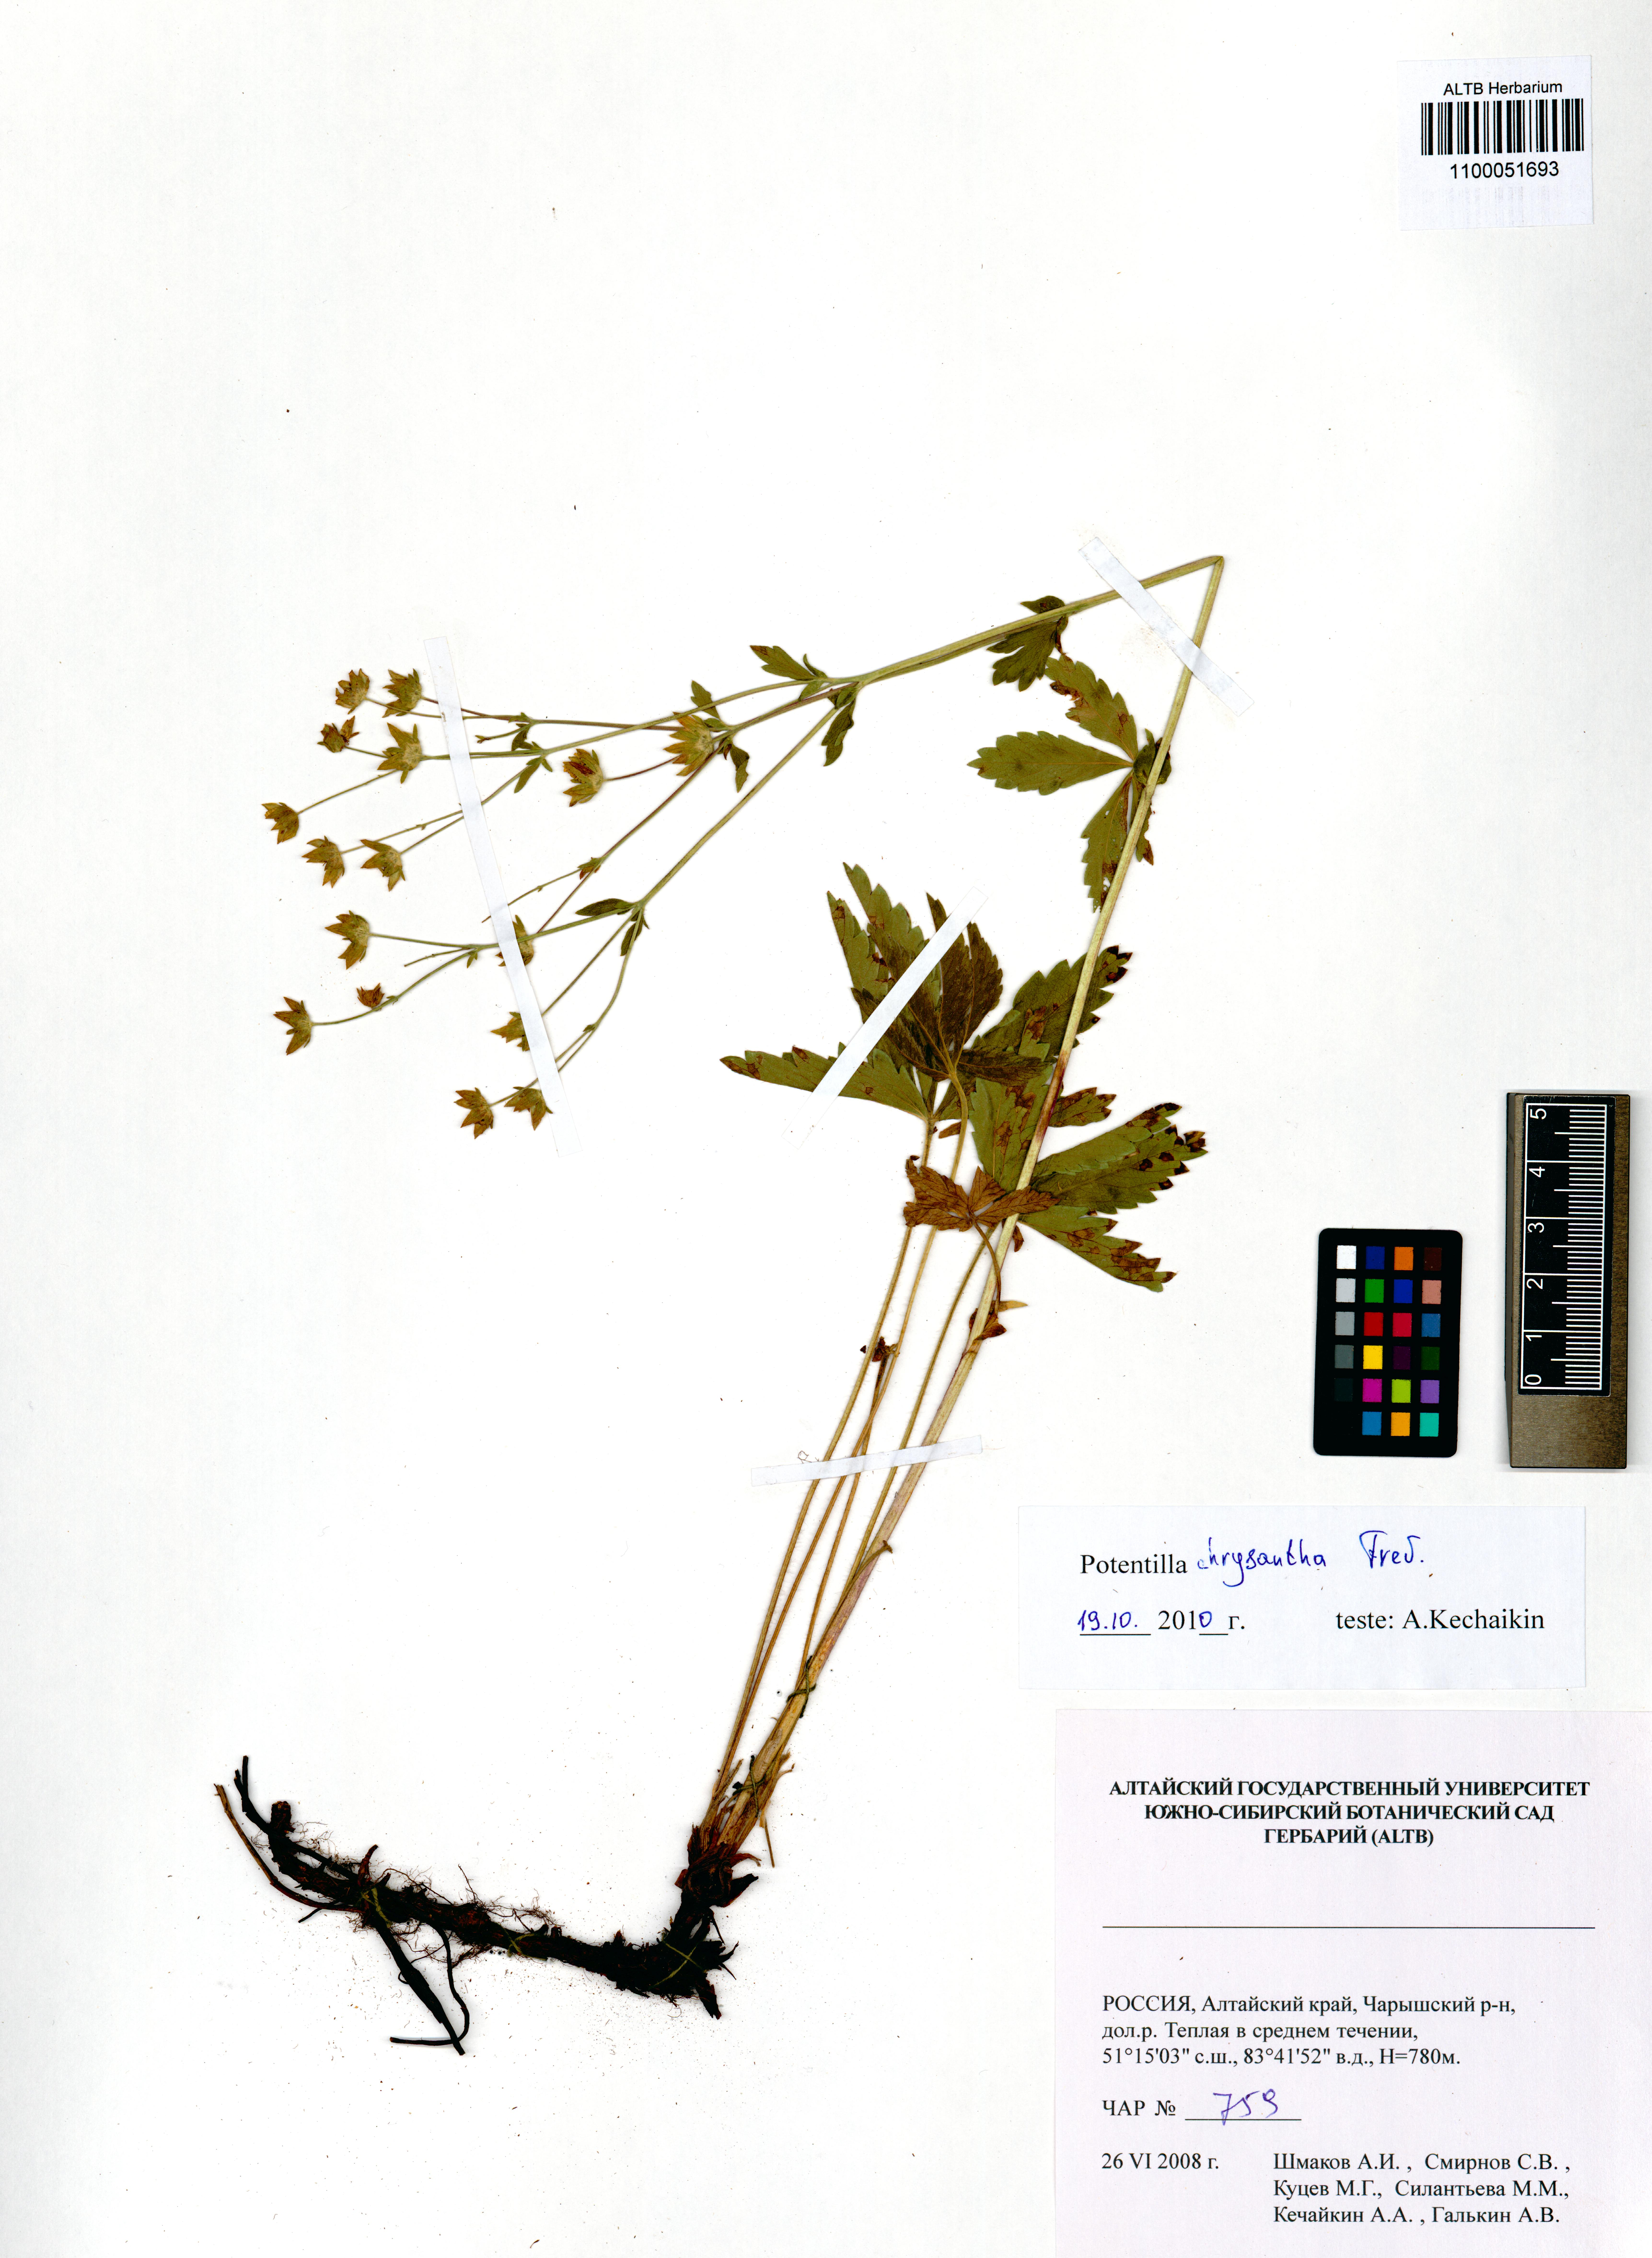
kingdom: Plantae
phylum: Tracheophyta
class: Magnoliopsida
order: Rosales
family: Rosaceae
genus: Potentilla
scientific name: Potentilla chrysantha
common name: Thuringian cinquefoil
